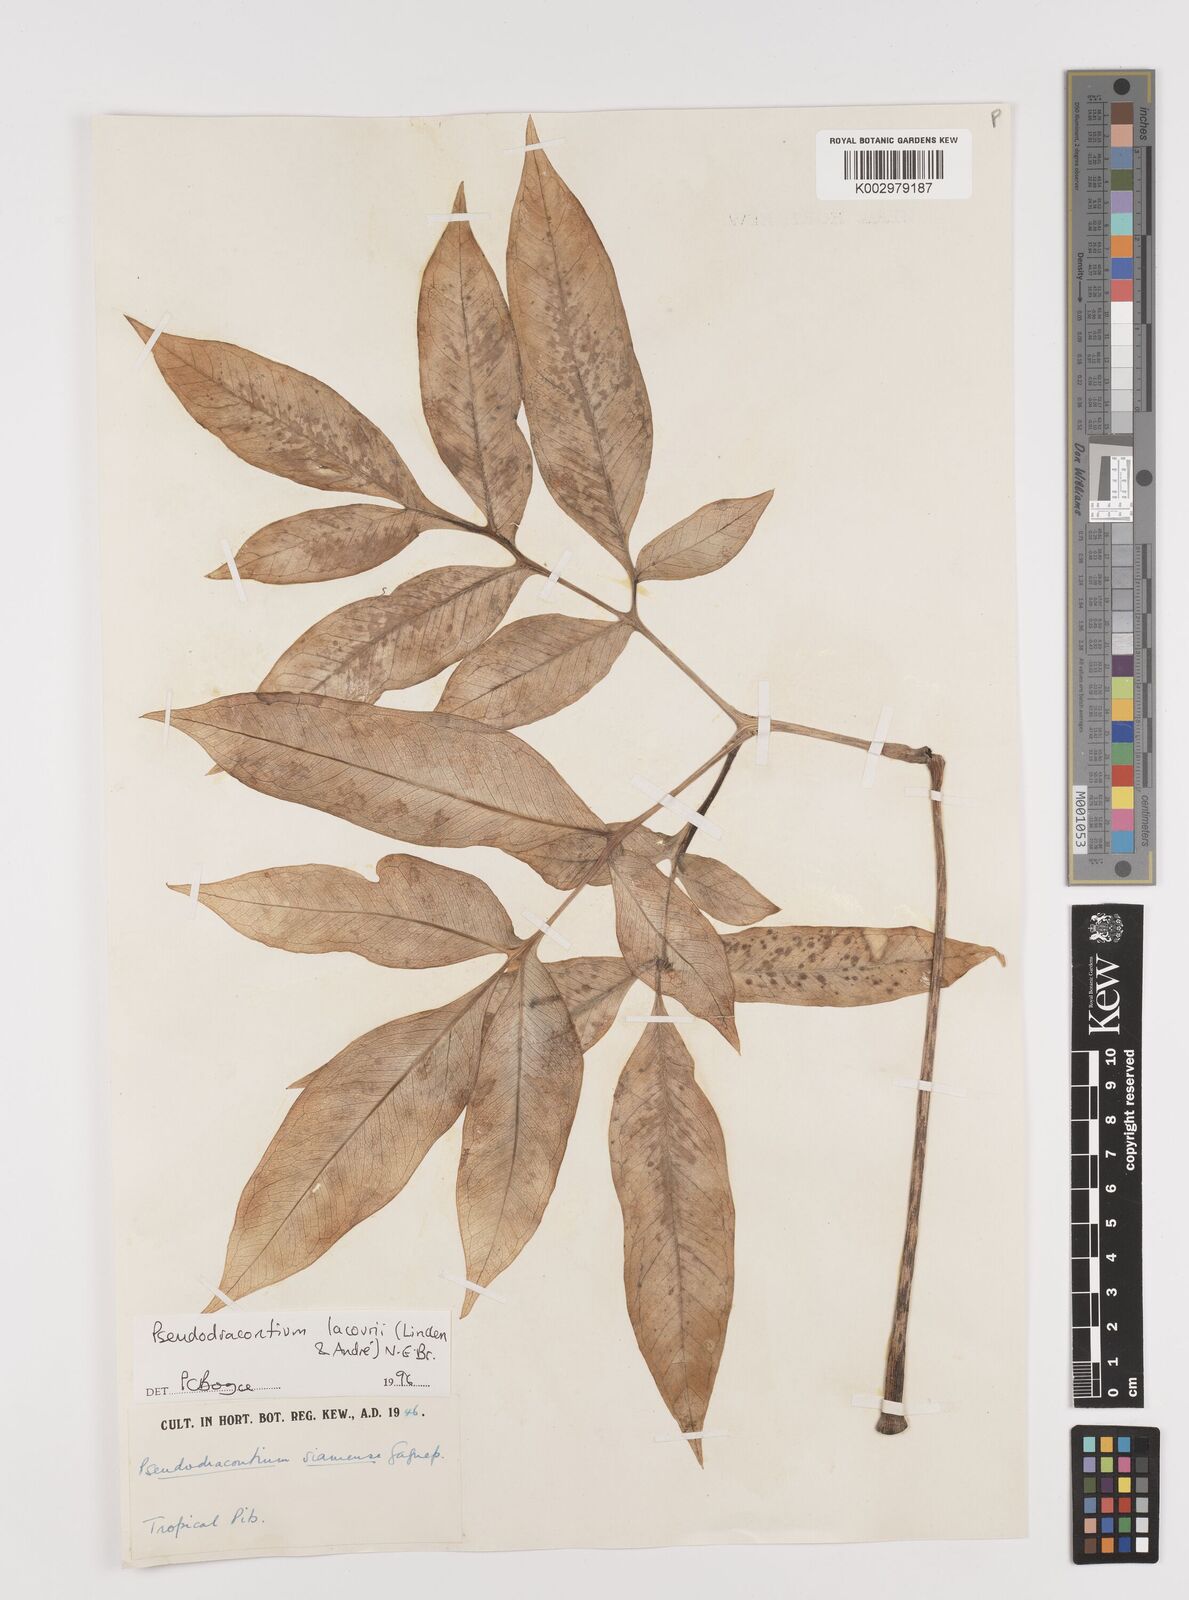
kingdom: Plantae
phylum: Tracheophyta
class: Liliopsida
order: Alismatales
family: Araceae
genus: Amorphophallus
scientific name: Amorphophallus lacourii
